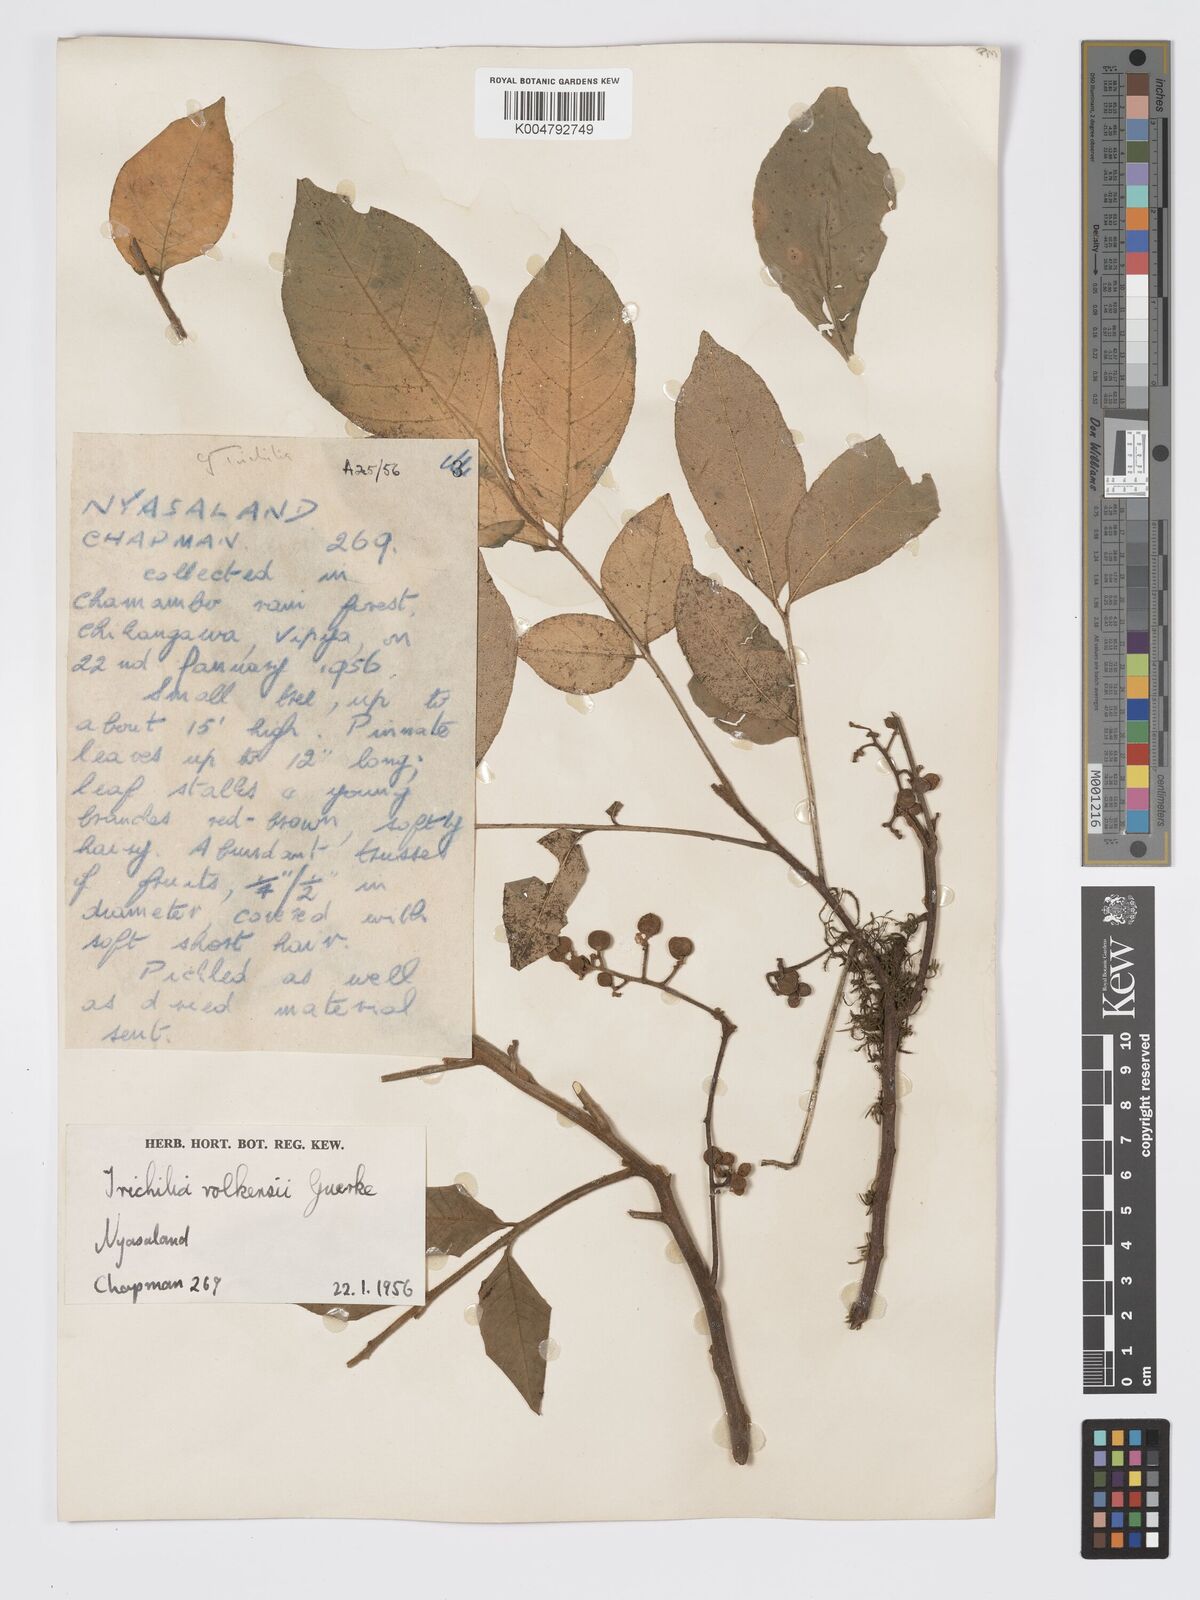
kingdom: Plantae
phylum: Tracheophyta
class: Magnoliopsida
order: Sapindales
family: Meliaceae
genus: Lepidotrichilia
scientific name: Lepidotrichilia volkensii
